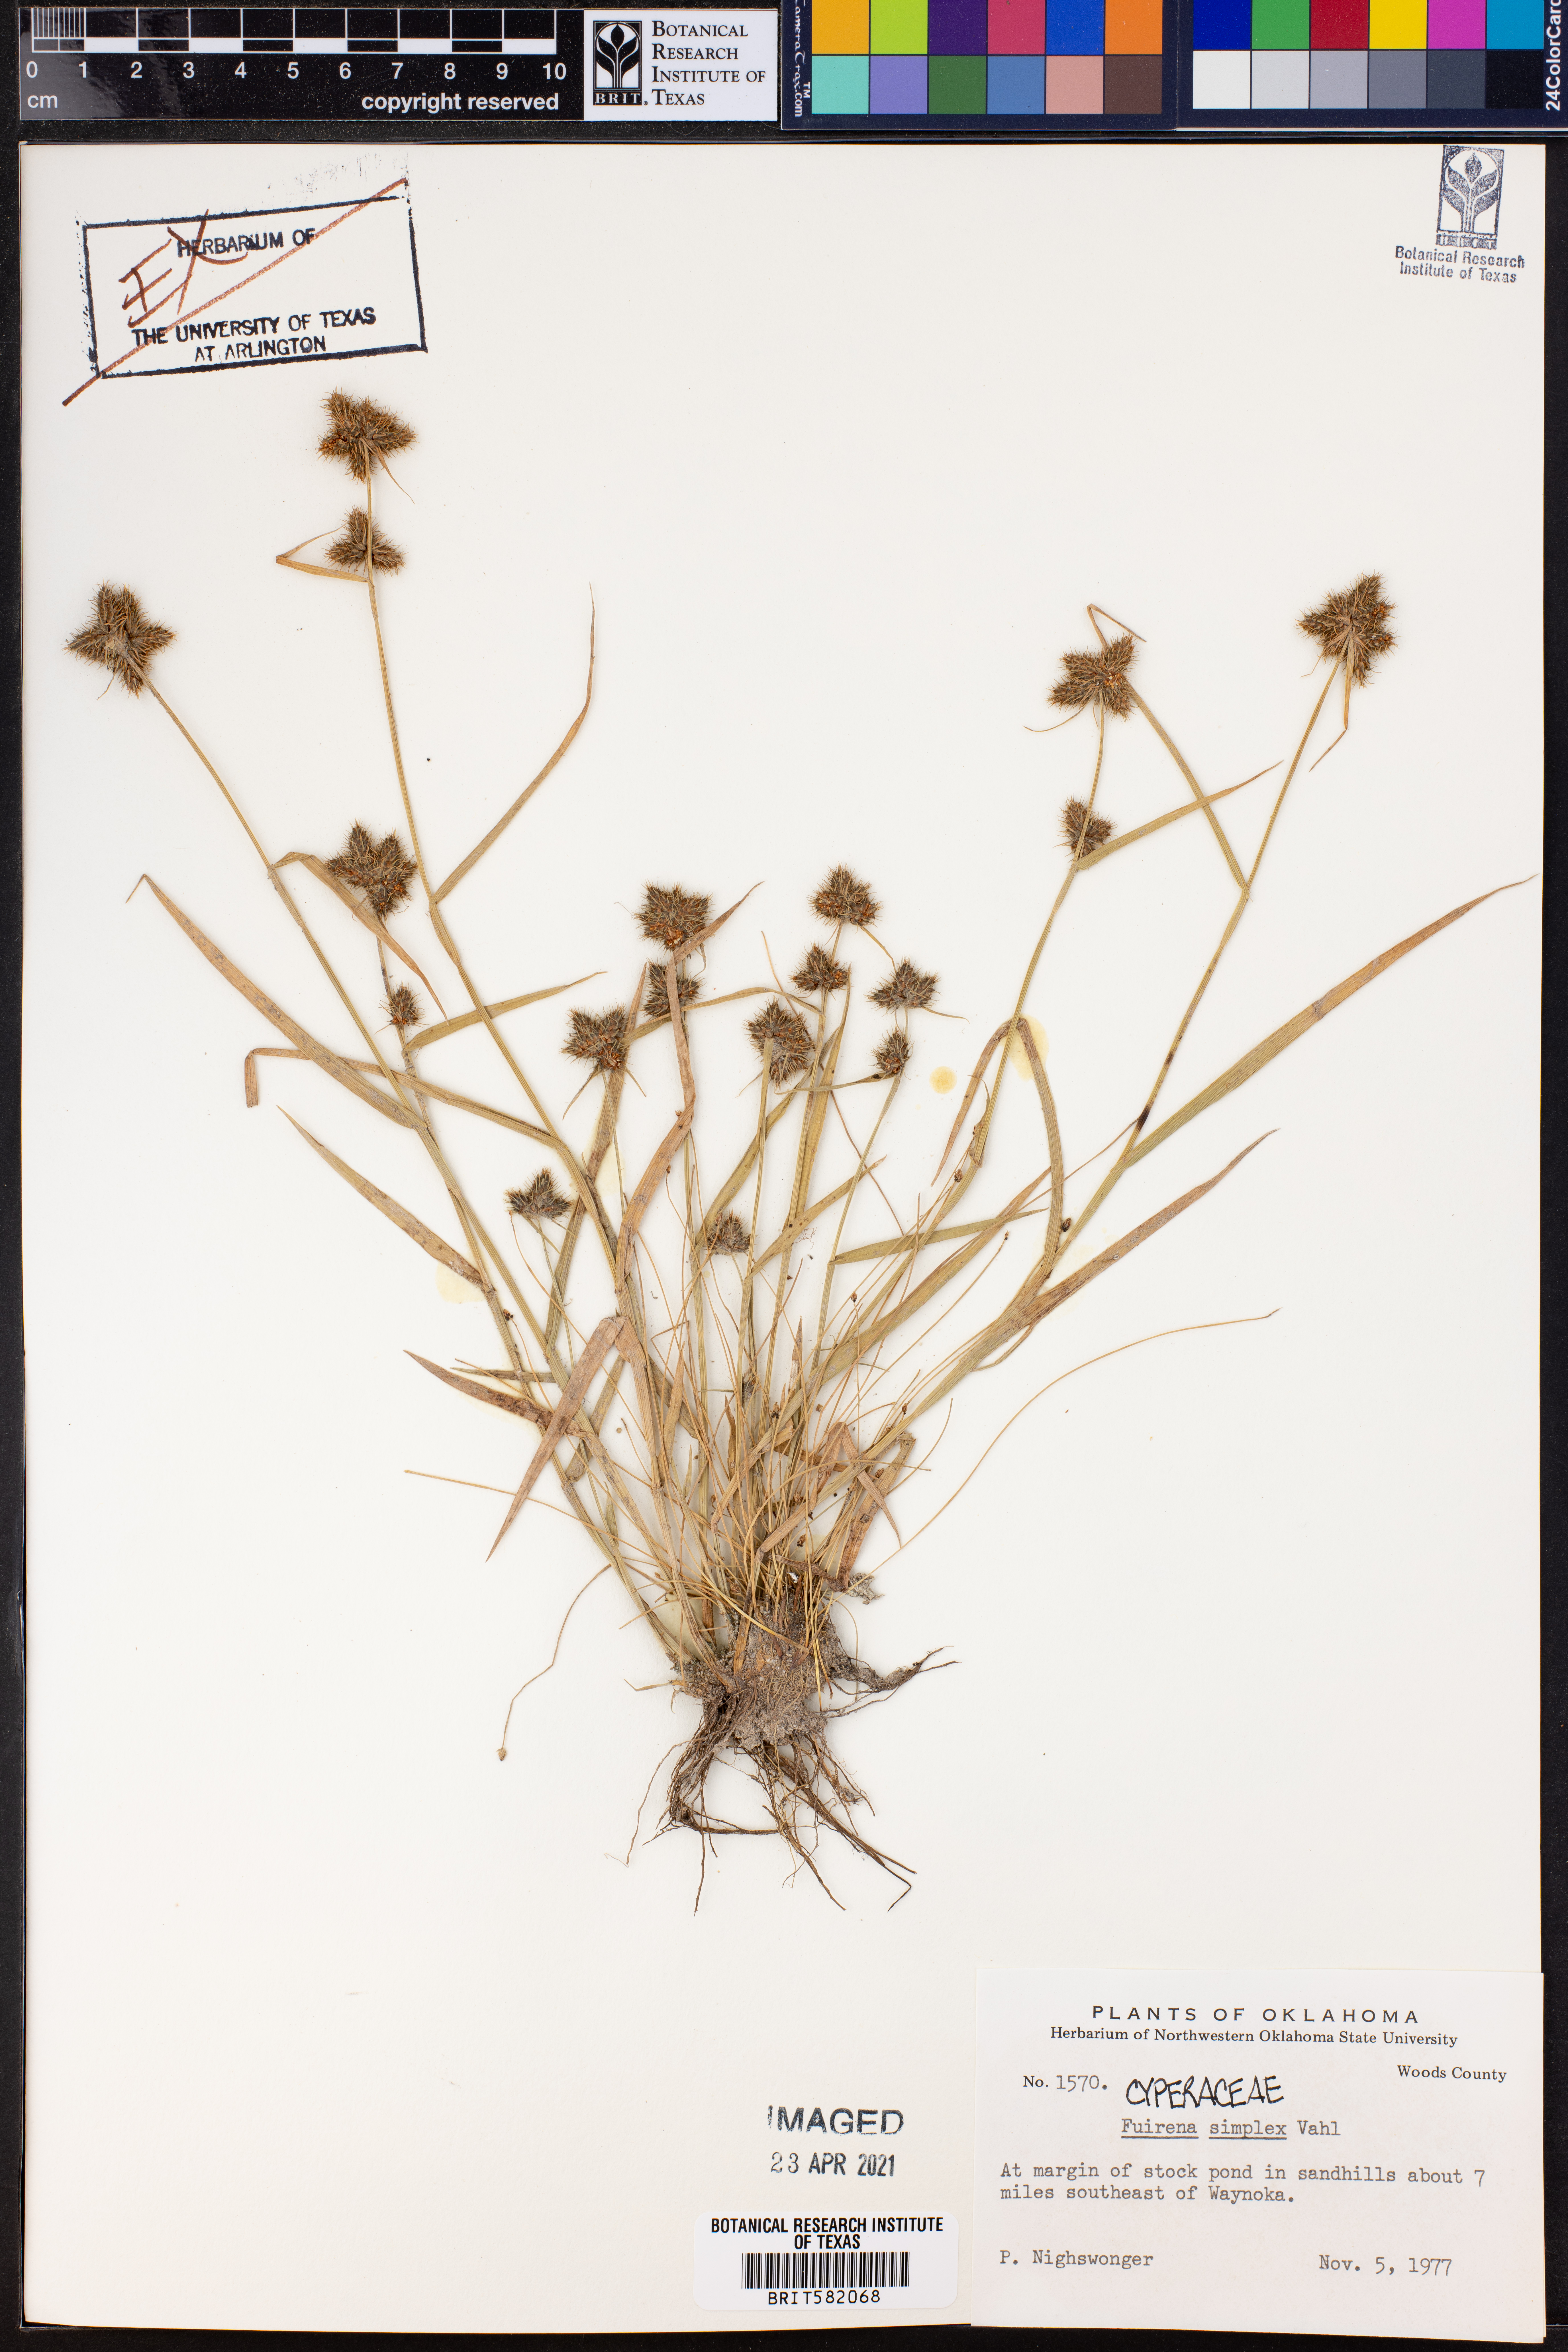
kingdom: Plantae
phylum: Tracheophyta
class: Liliopsida
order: Poales
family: Cyperaceae
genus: Fuirena
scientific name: Fuirena simplex
